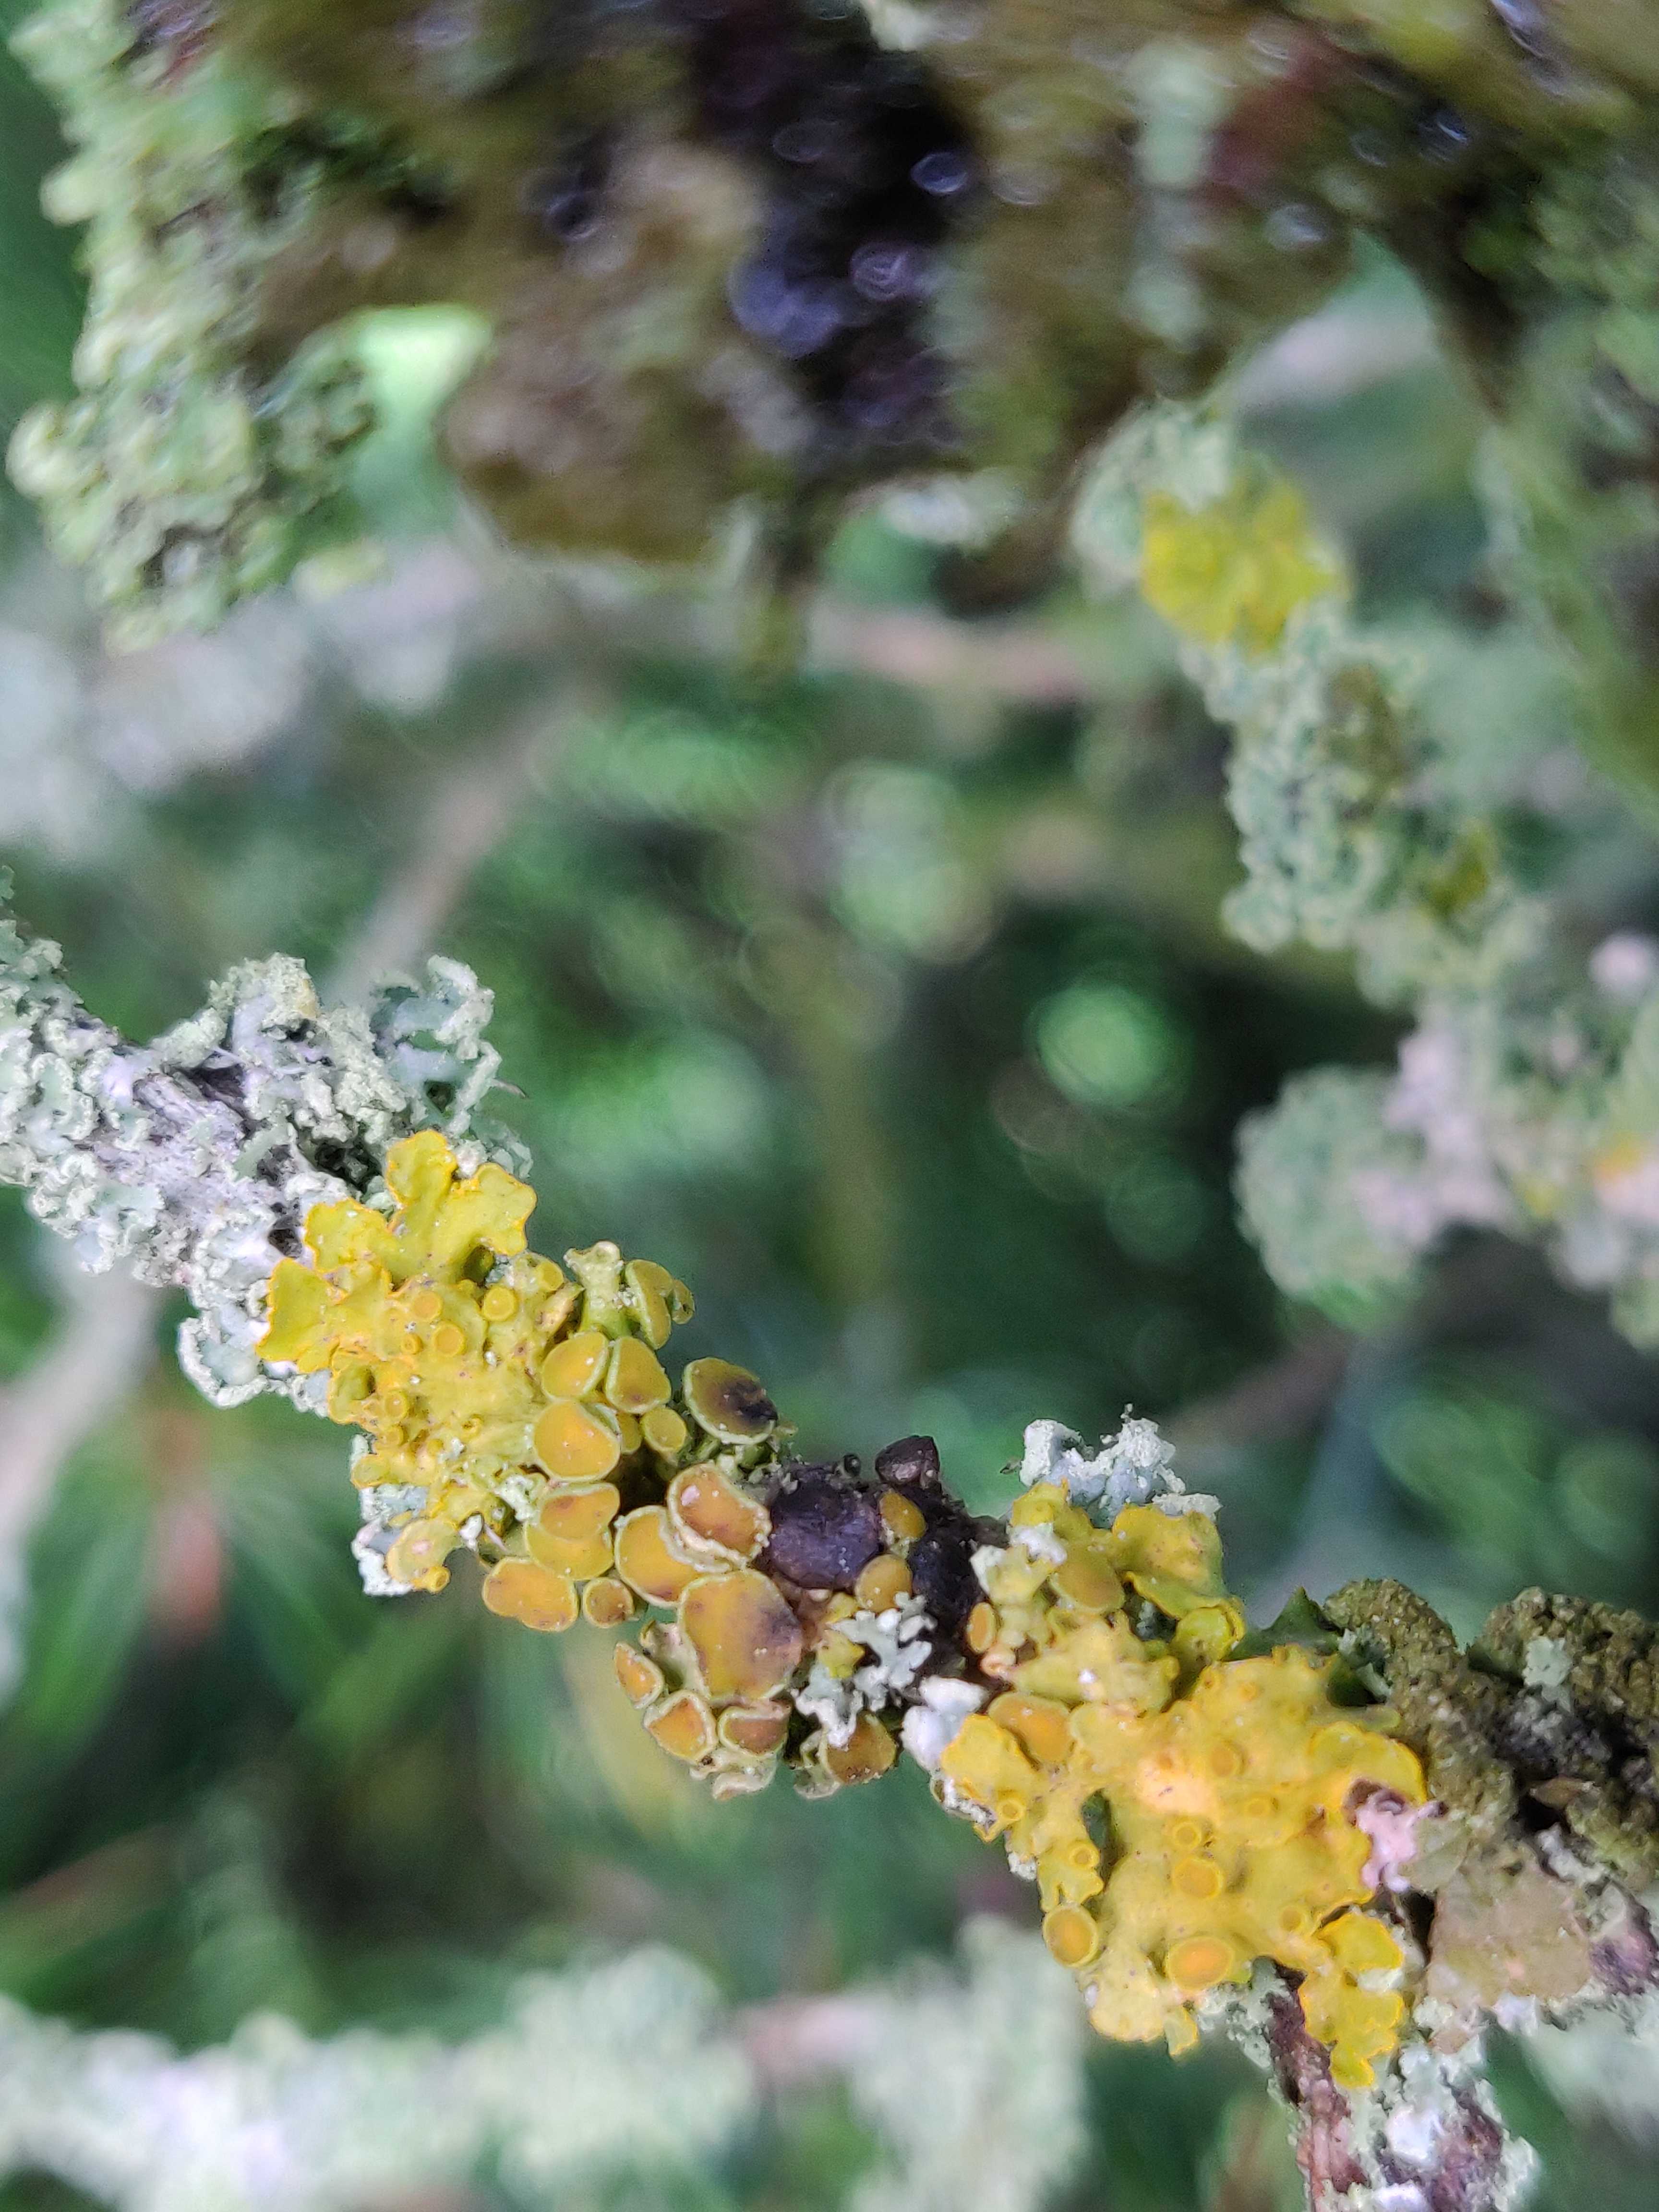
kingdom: Fungi
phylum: Ascomycota
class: Dothideomycetes
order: Mycosphaerellales
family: Teratosphaeriaceae
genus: Xanthoriicola
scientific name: Xanthoriicola physciae
